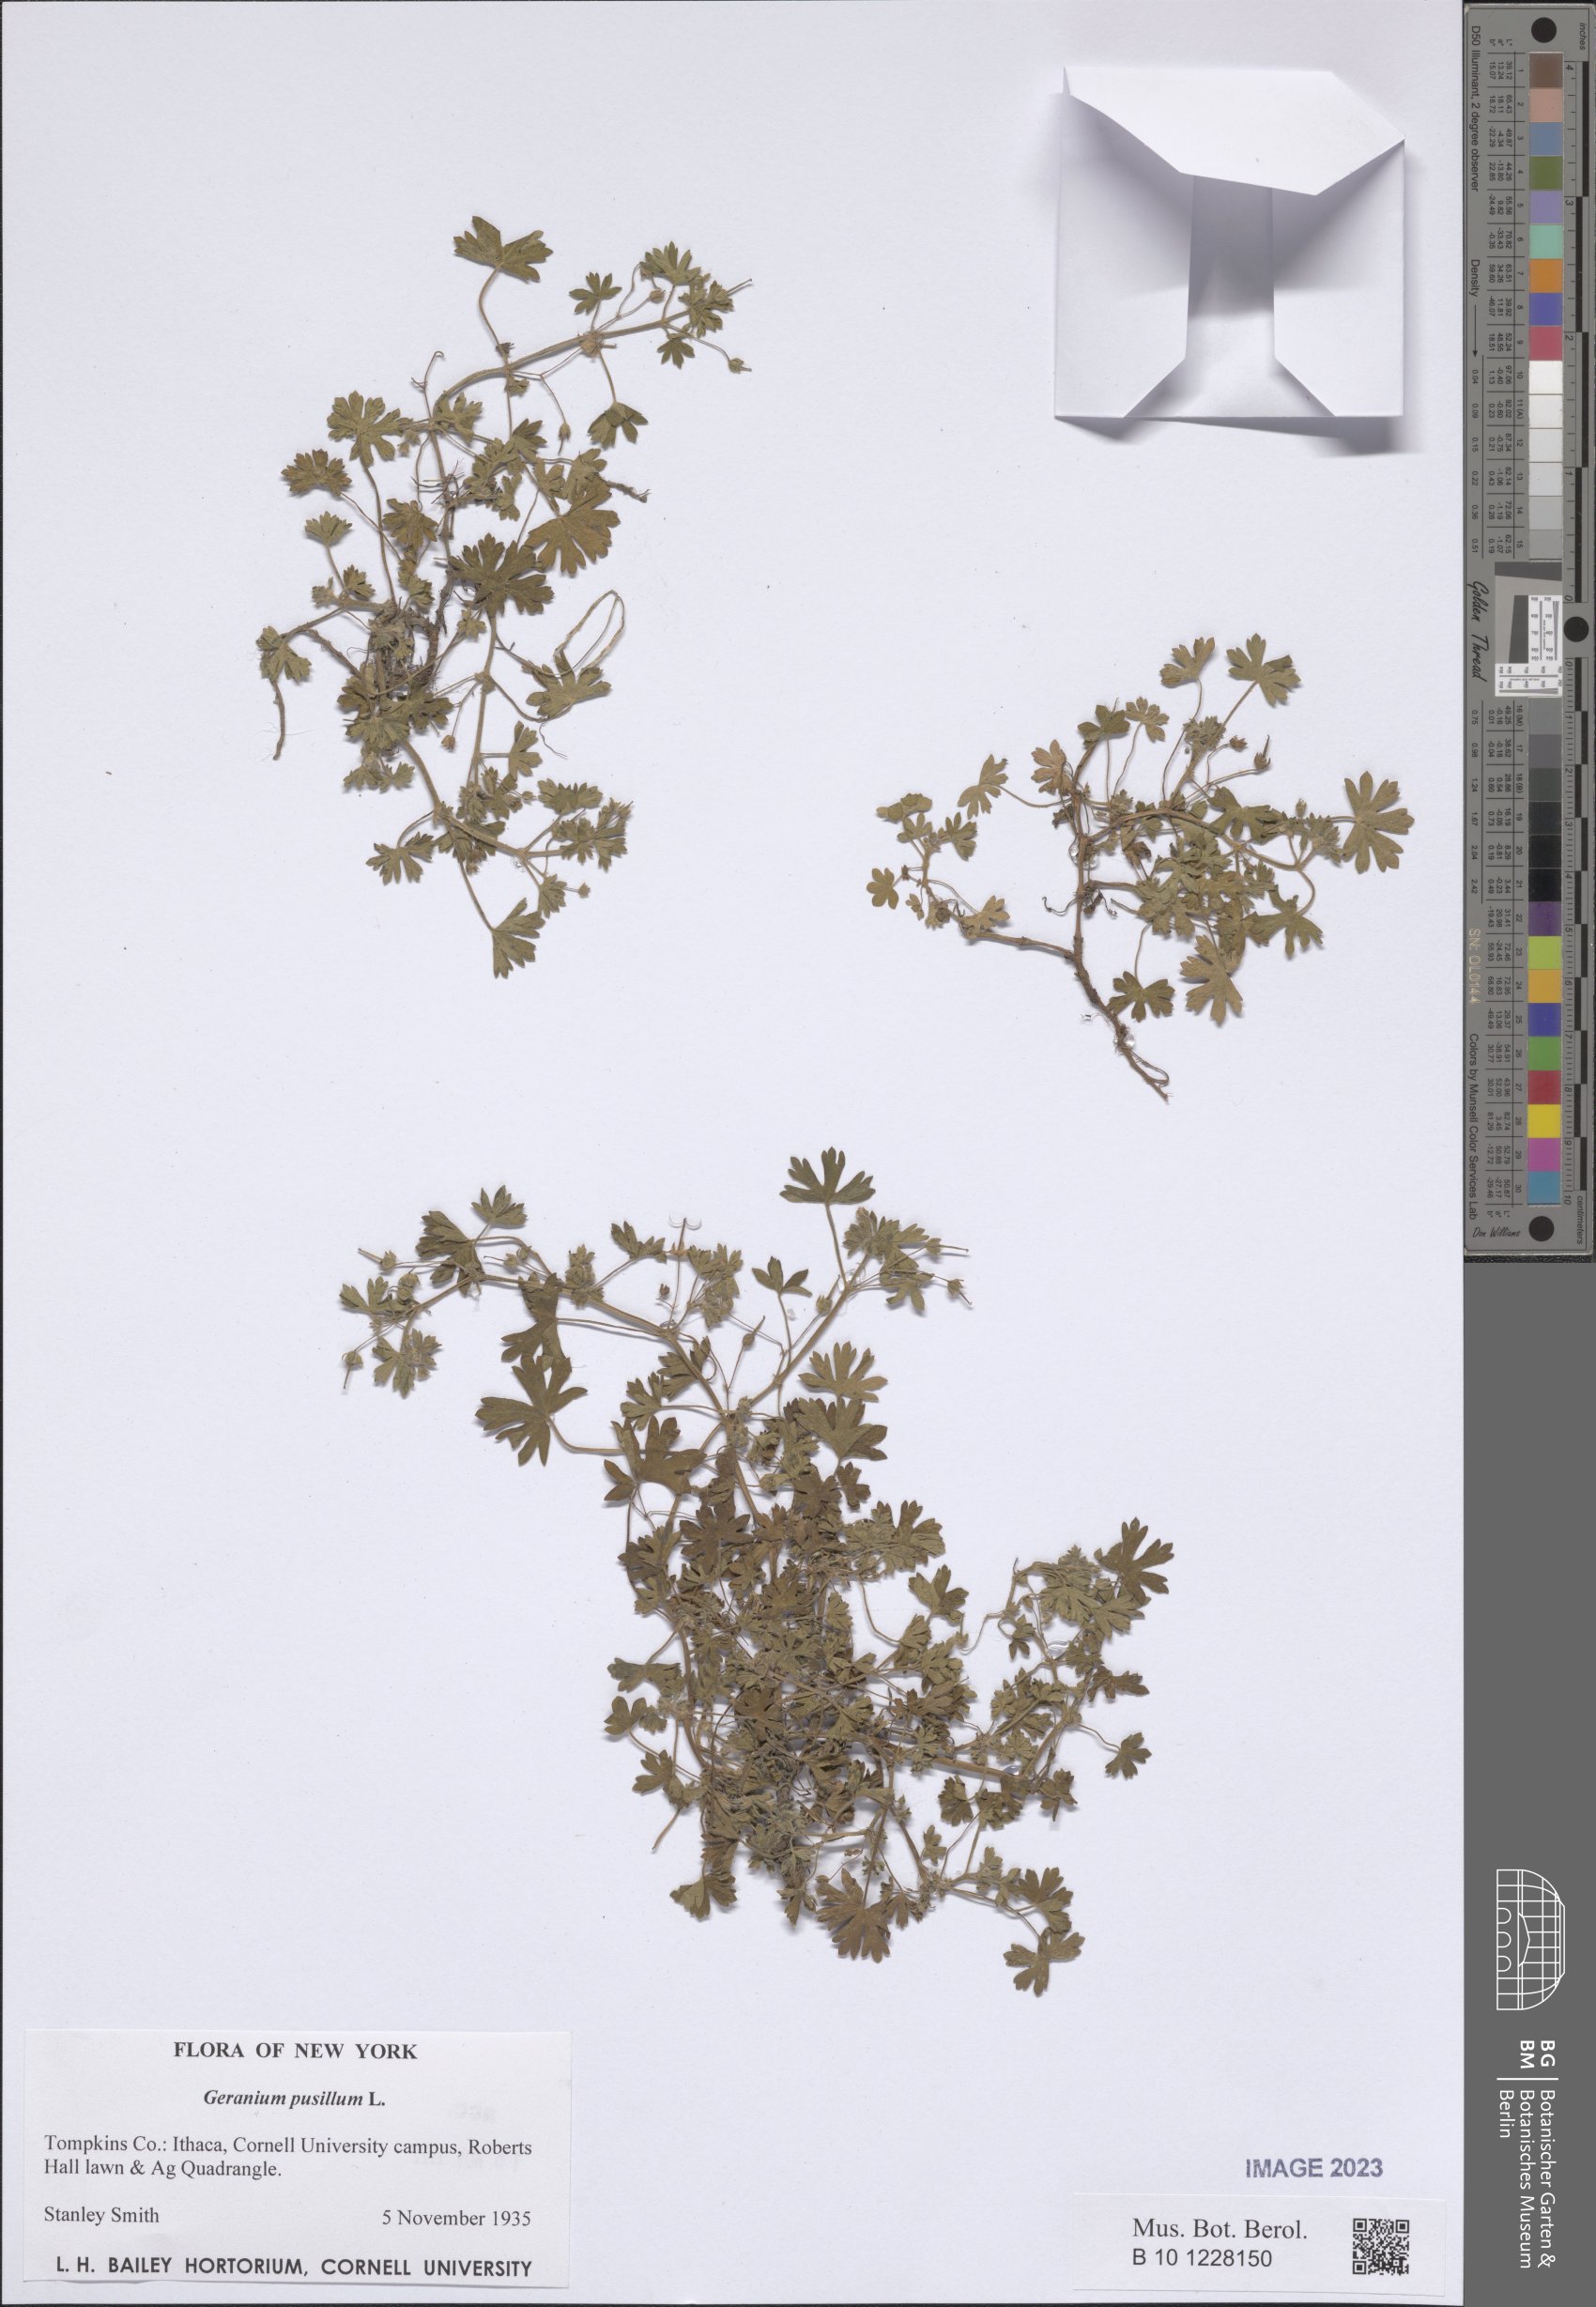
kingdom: Plantae
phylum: Tracheophyta
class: Magnoliopsida
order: Geraniales
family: Geraniaceae
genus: Geranium
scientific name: Geranium pusillum
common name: Small geranium
